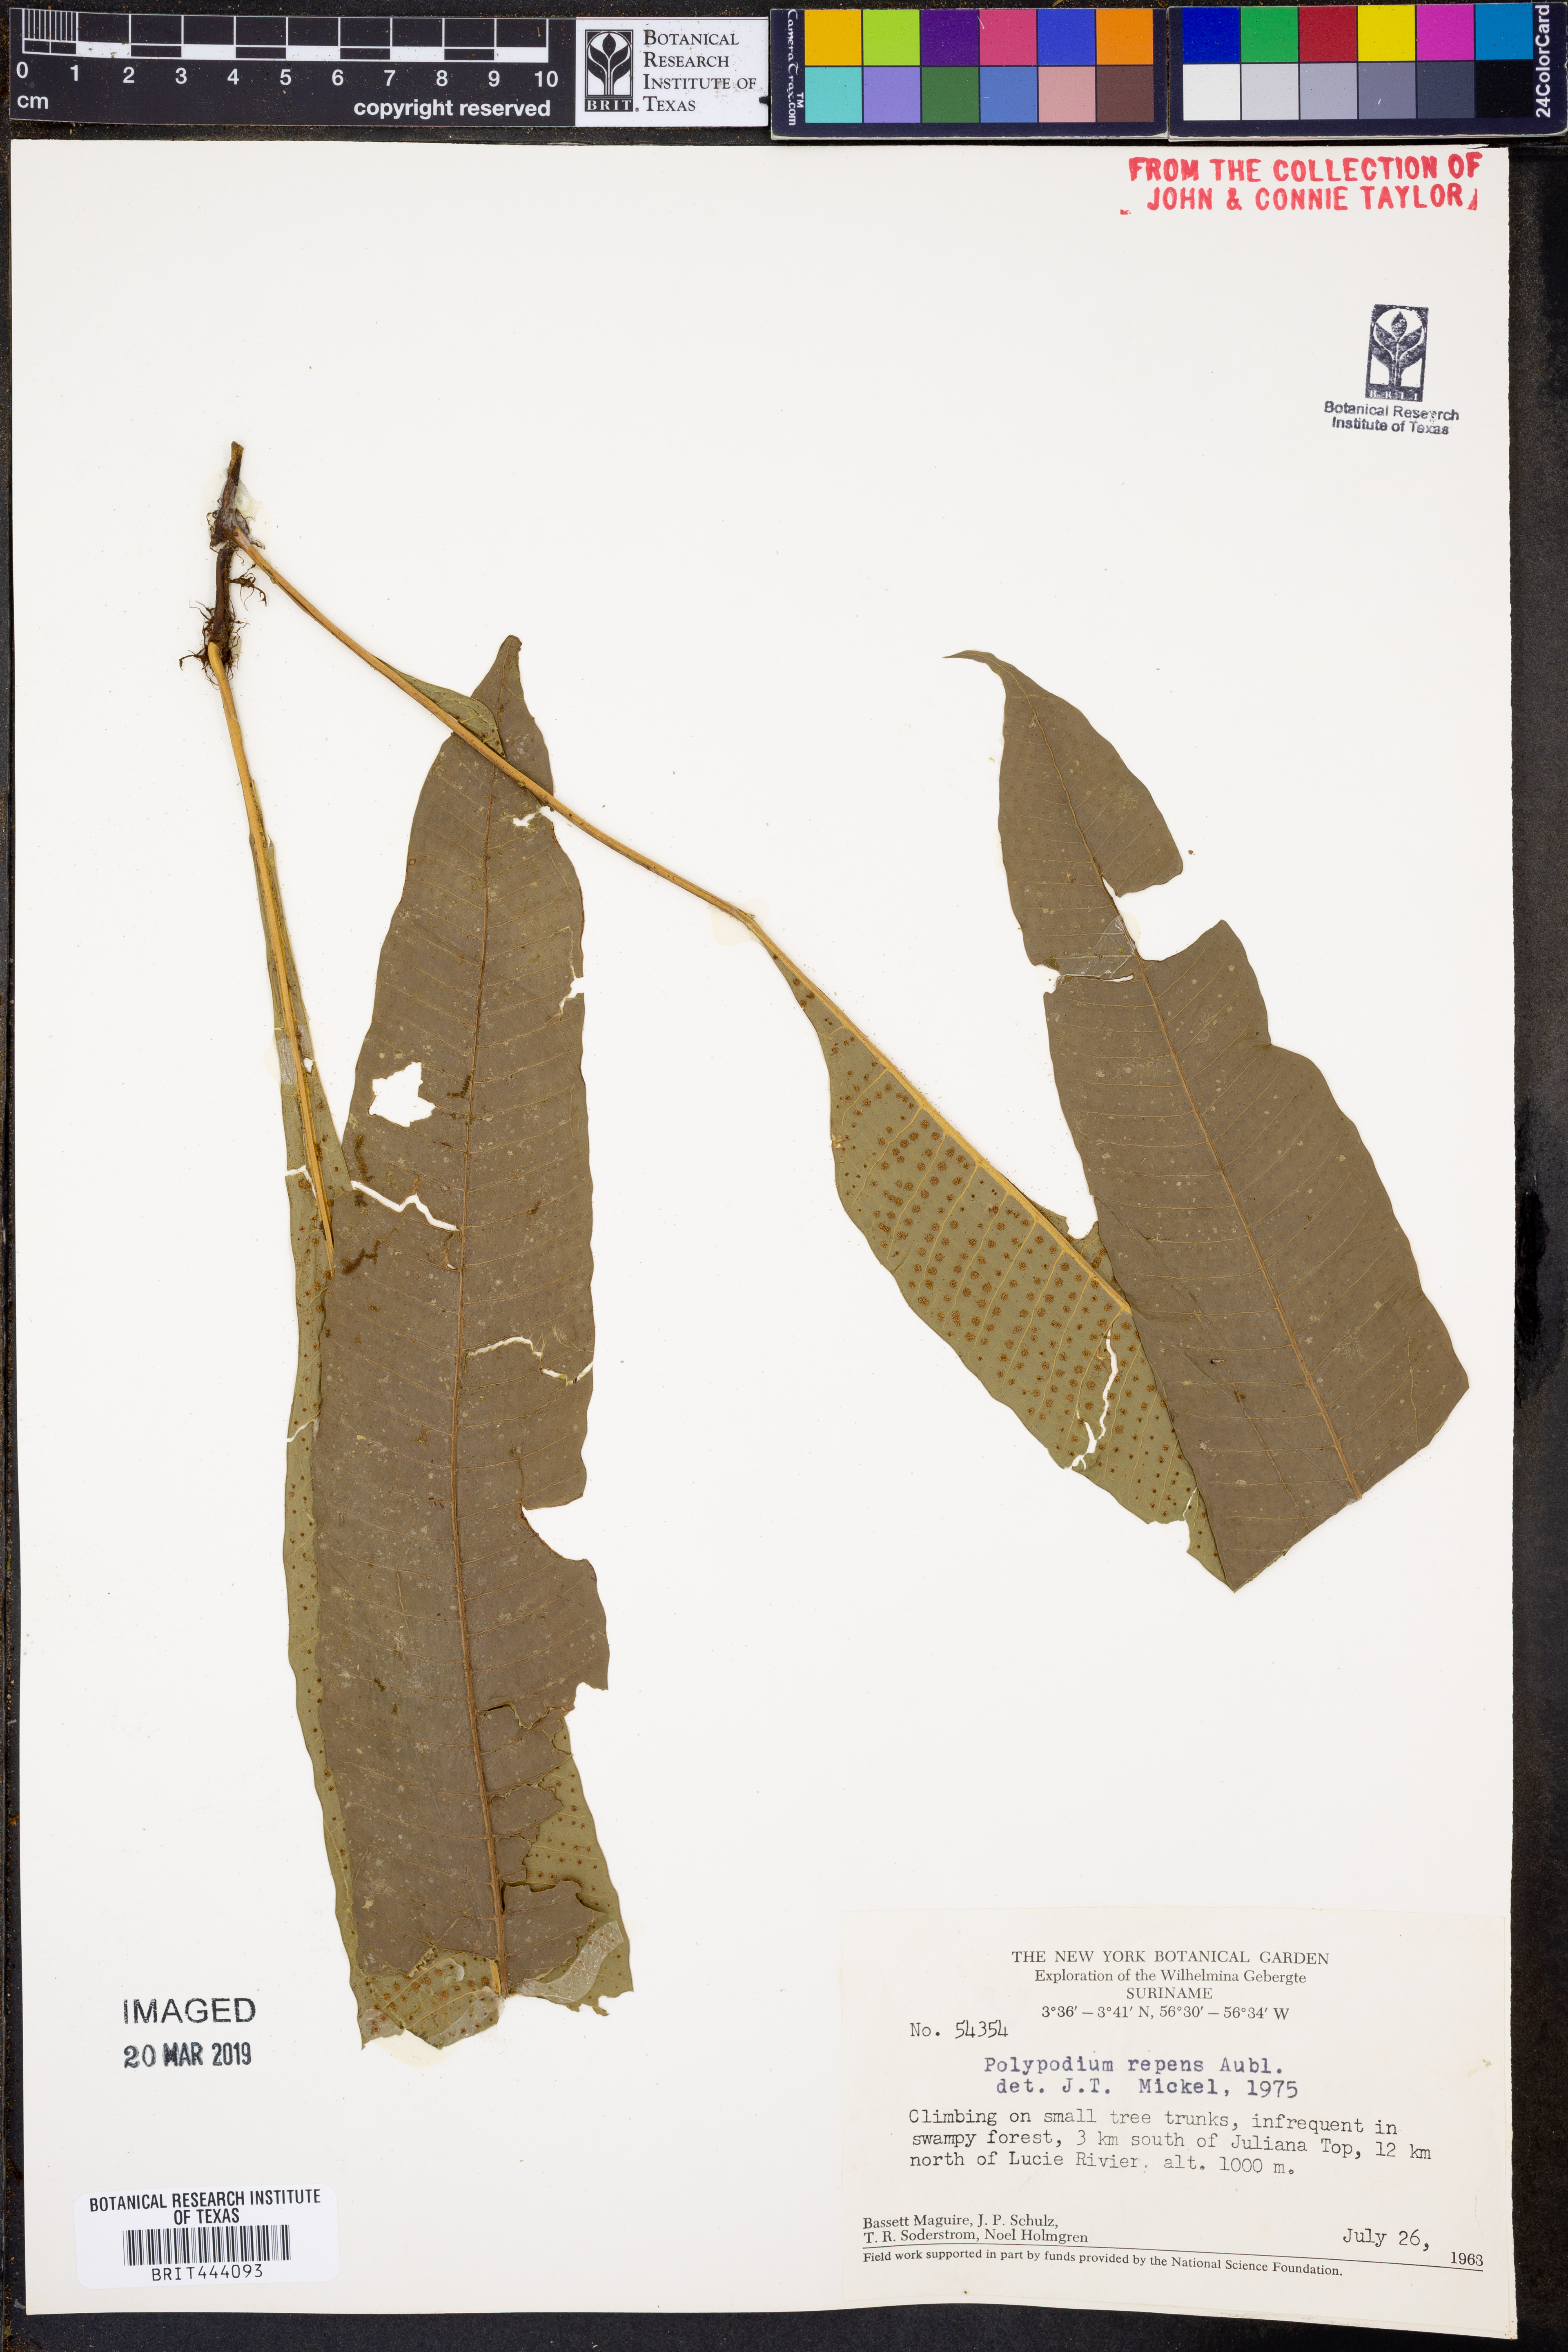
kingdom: Plantae
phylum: Tracheophyta
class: Polypodiopsida
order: Polypodiales
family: Polypodiaceae
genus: Campyloneurum
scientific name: Campyloneurum repens
